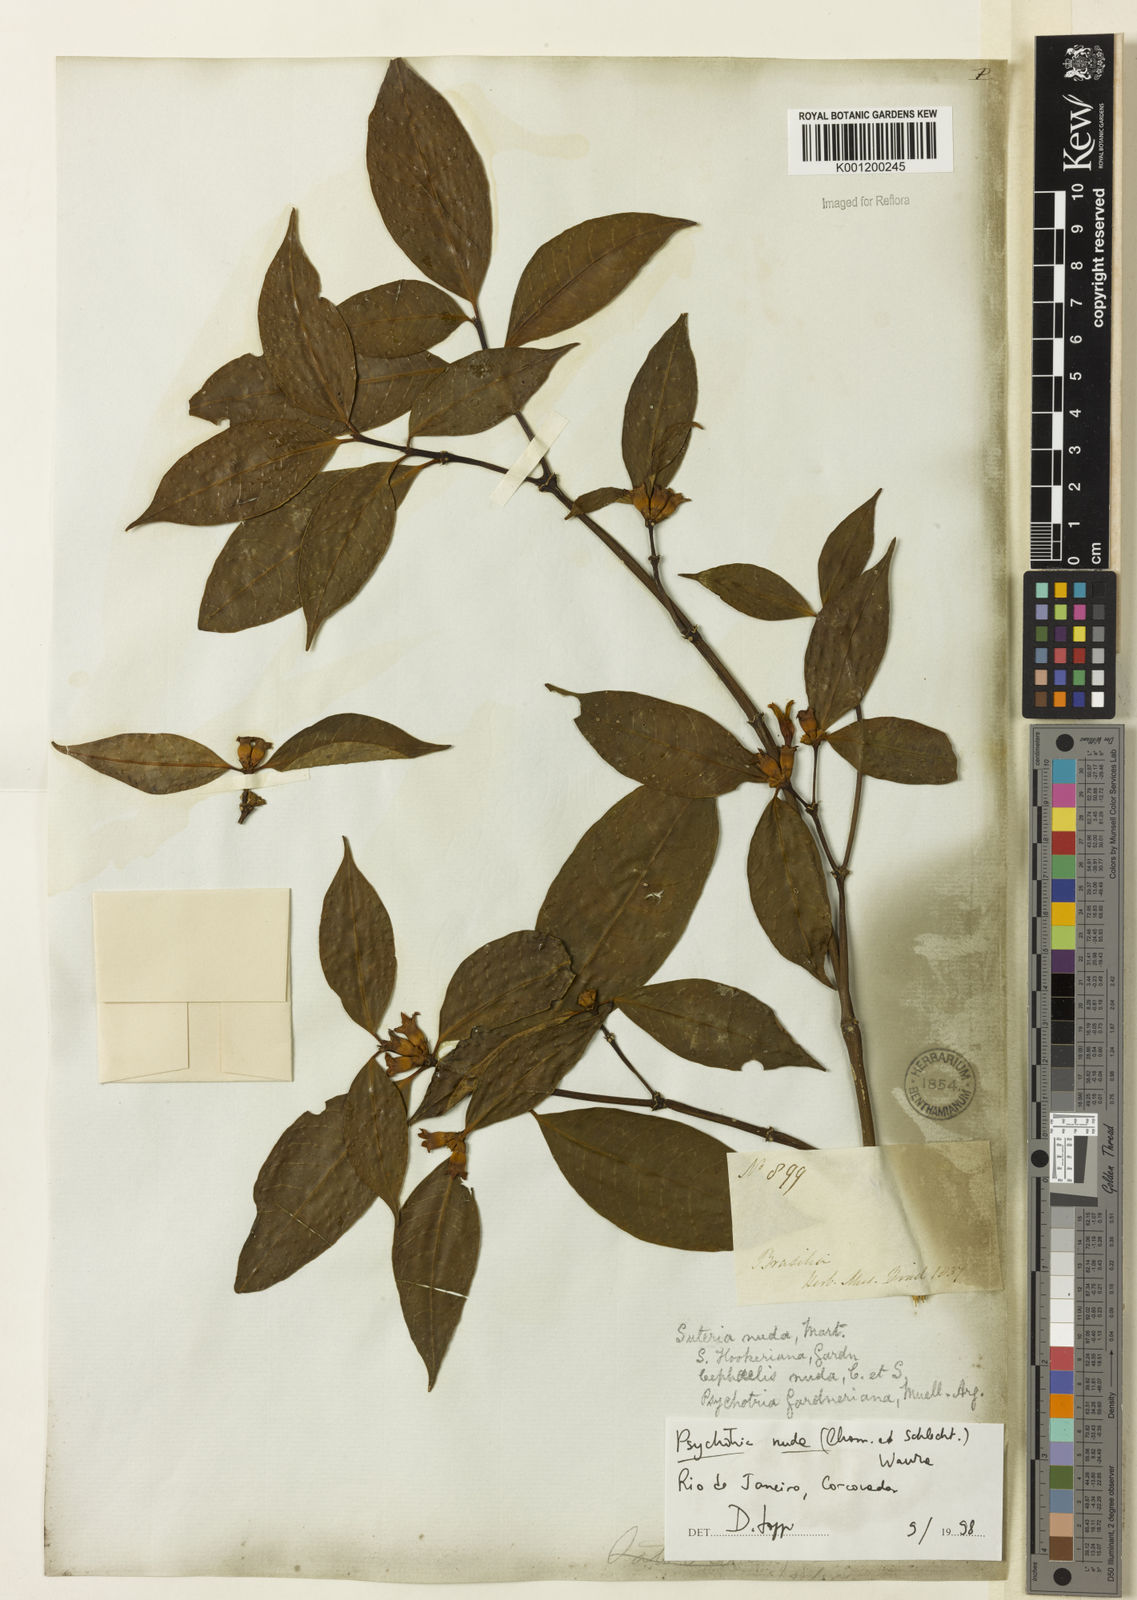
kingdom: Plantae
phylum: Tracheophyta
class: Magnoliopsida
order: Gentianales
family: Rubiaceae
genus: Psychotria
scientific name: Psychotria
